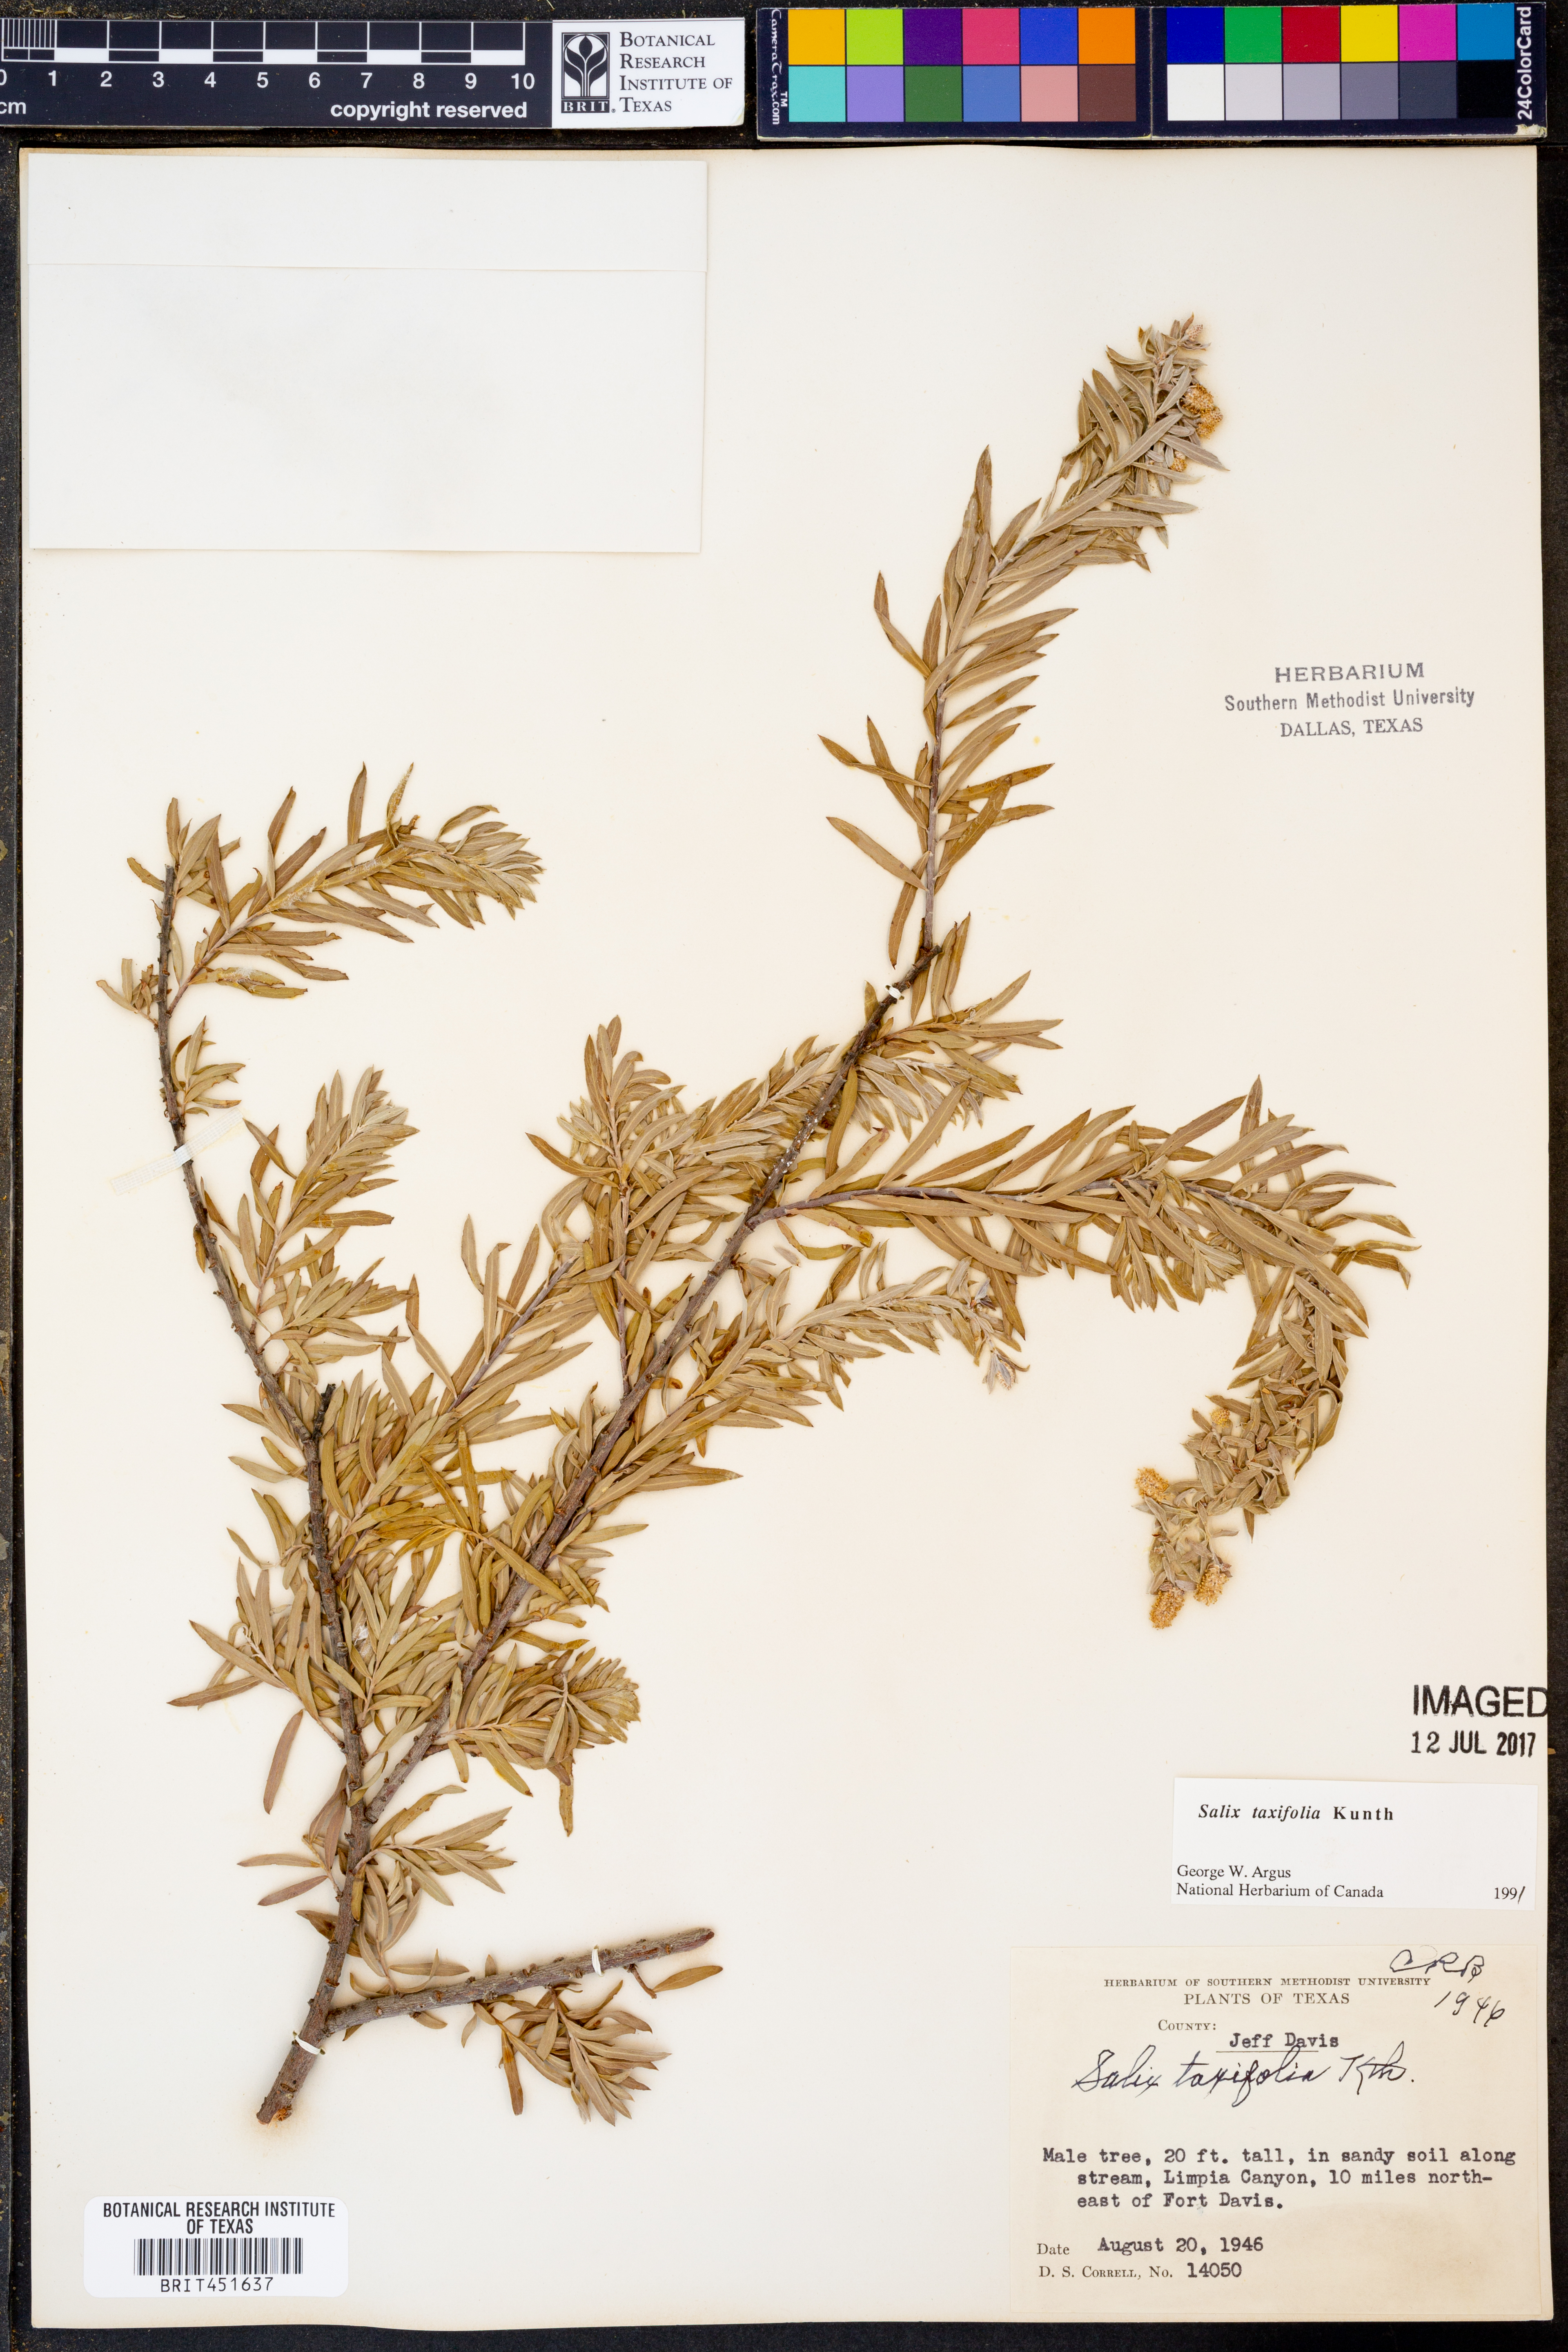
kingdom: Plantae
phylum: Tracheophyta
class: Magnoliopsida
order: Malpighiales
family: Salicaceae
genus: Salix
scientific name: Salix taxifolia
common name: Yew-leaf willow
